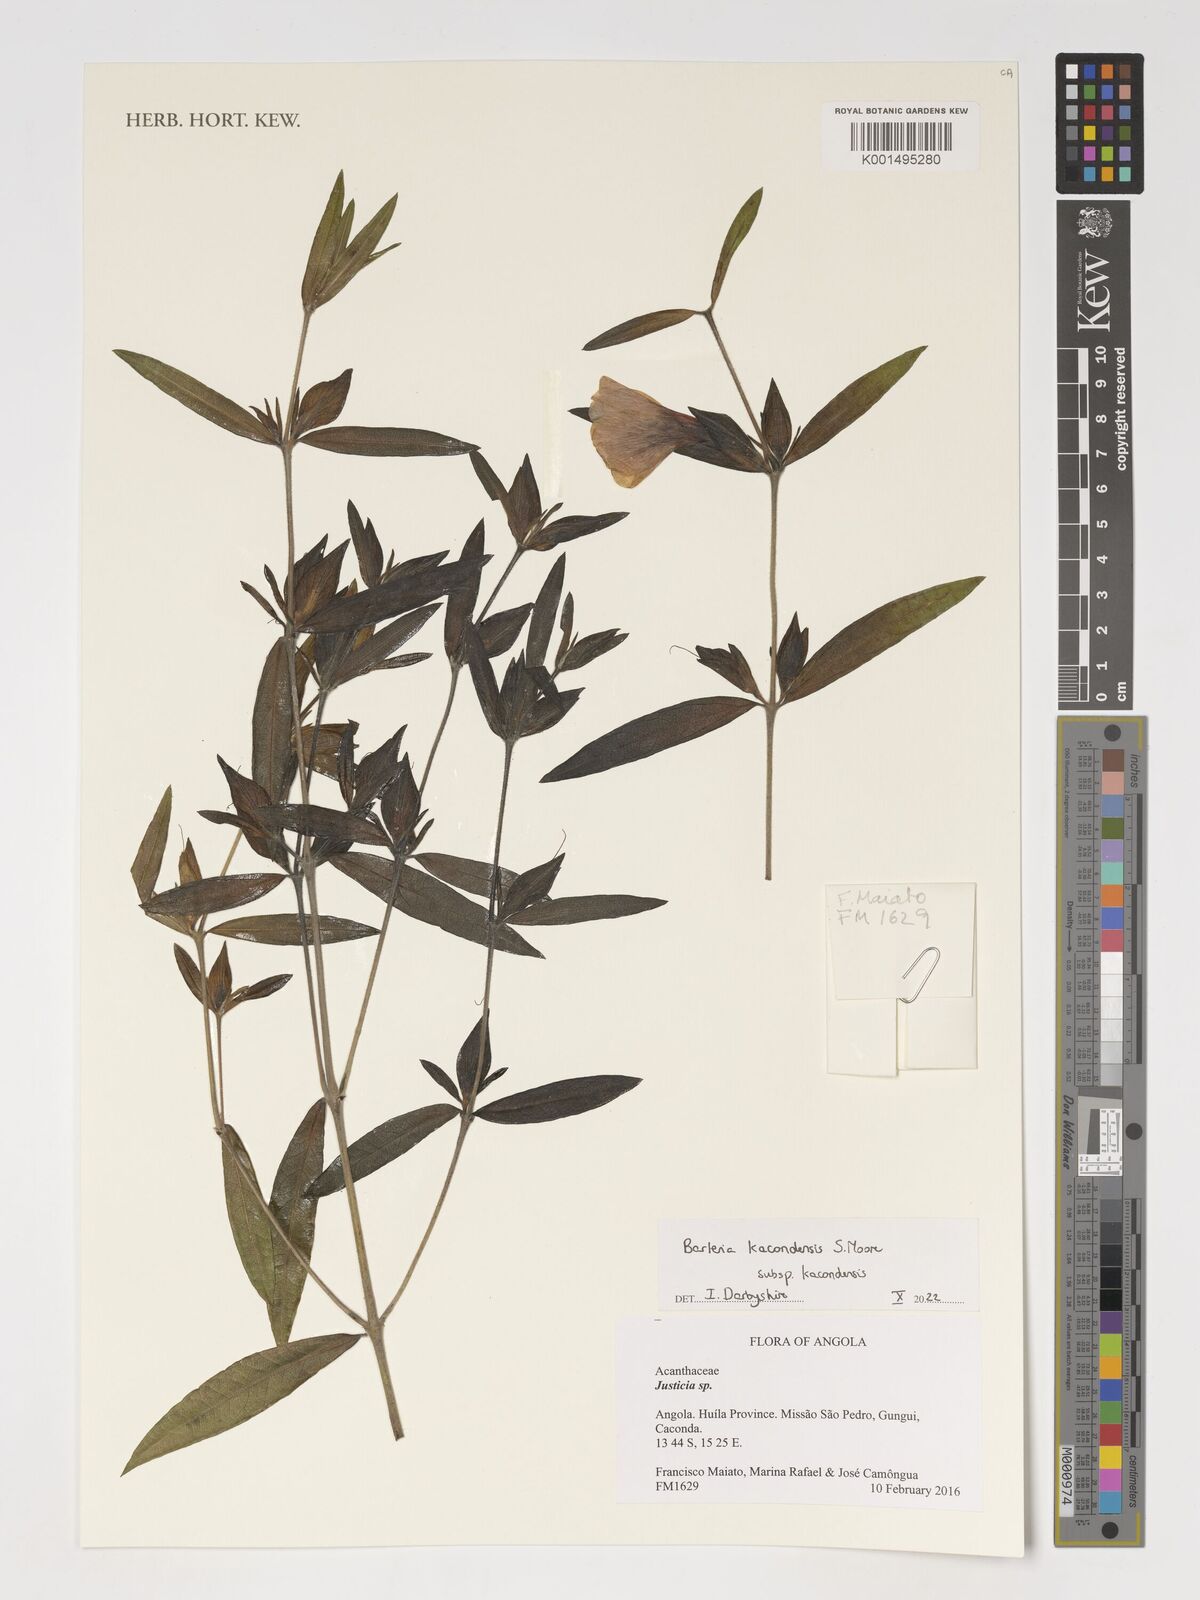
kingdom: Plantae
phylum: Tracheophyta
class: Magnoliopsida
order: Lamiales
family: Acanthaceae
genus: Barleria
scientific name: Barleria kacondensis
